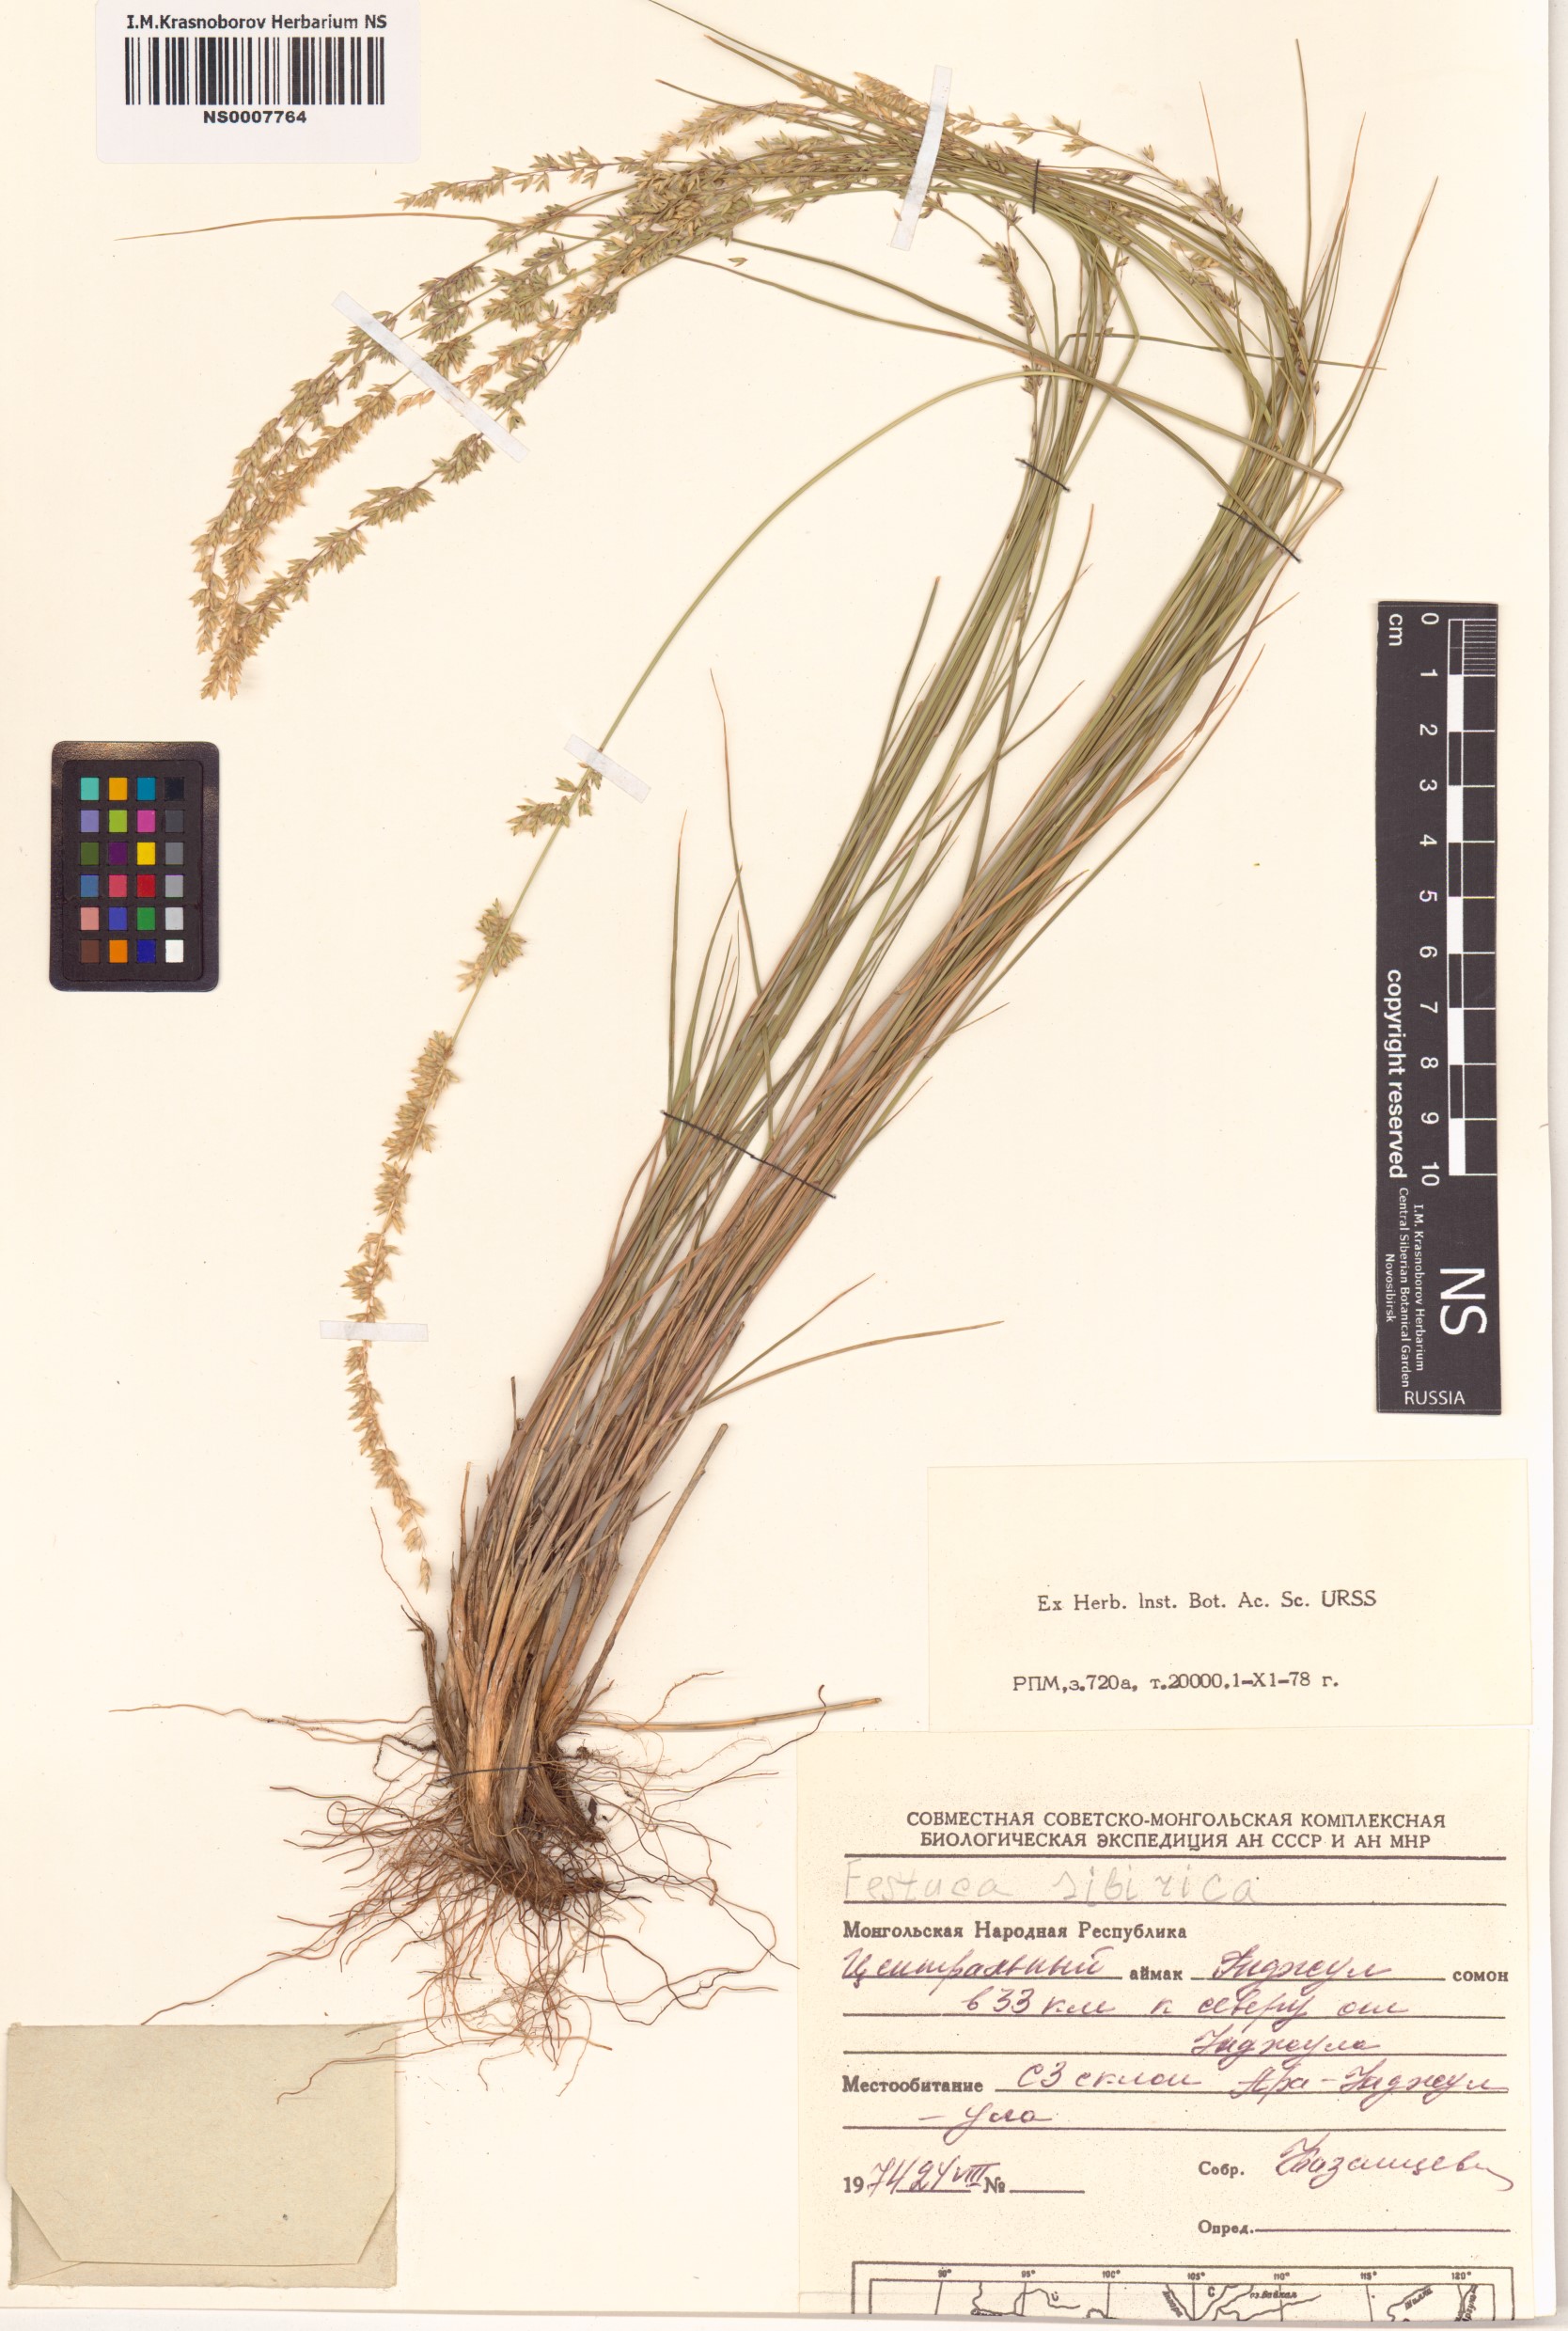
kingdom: Plantae
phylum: Tracheophyta
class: Liliopsida
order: Poales
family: Poaceae
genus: Festuca
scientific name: Festuca sibirica
